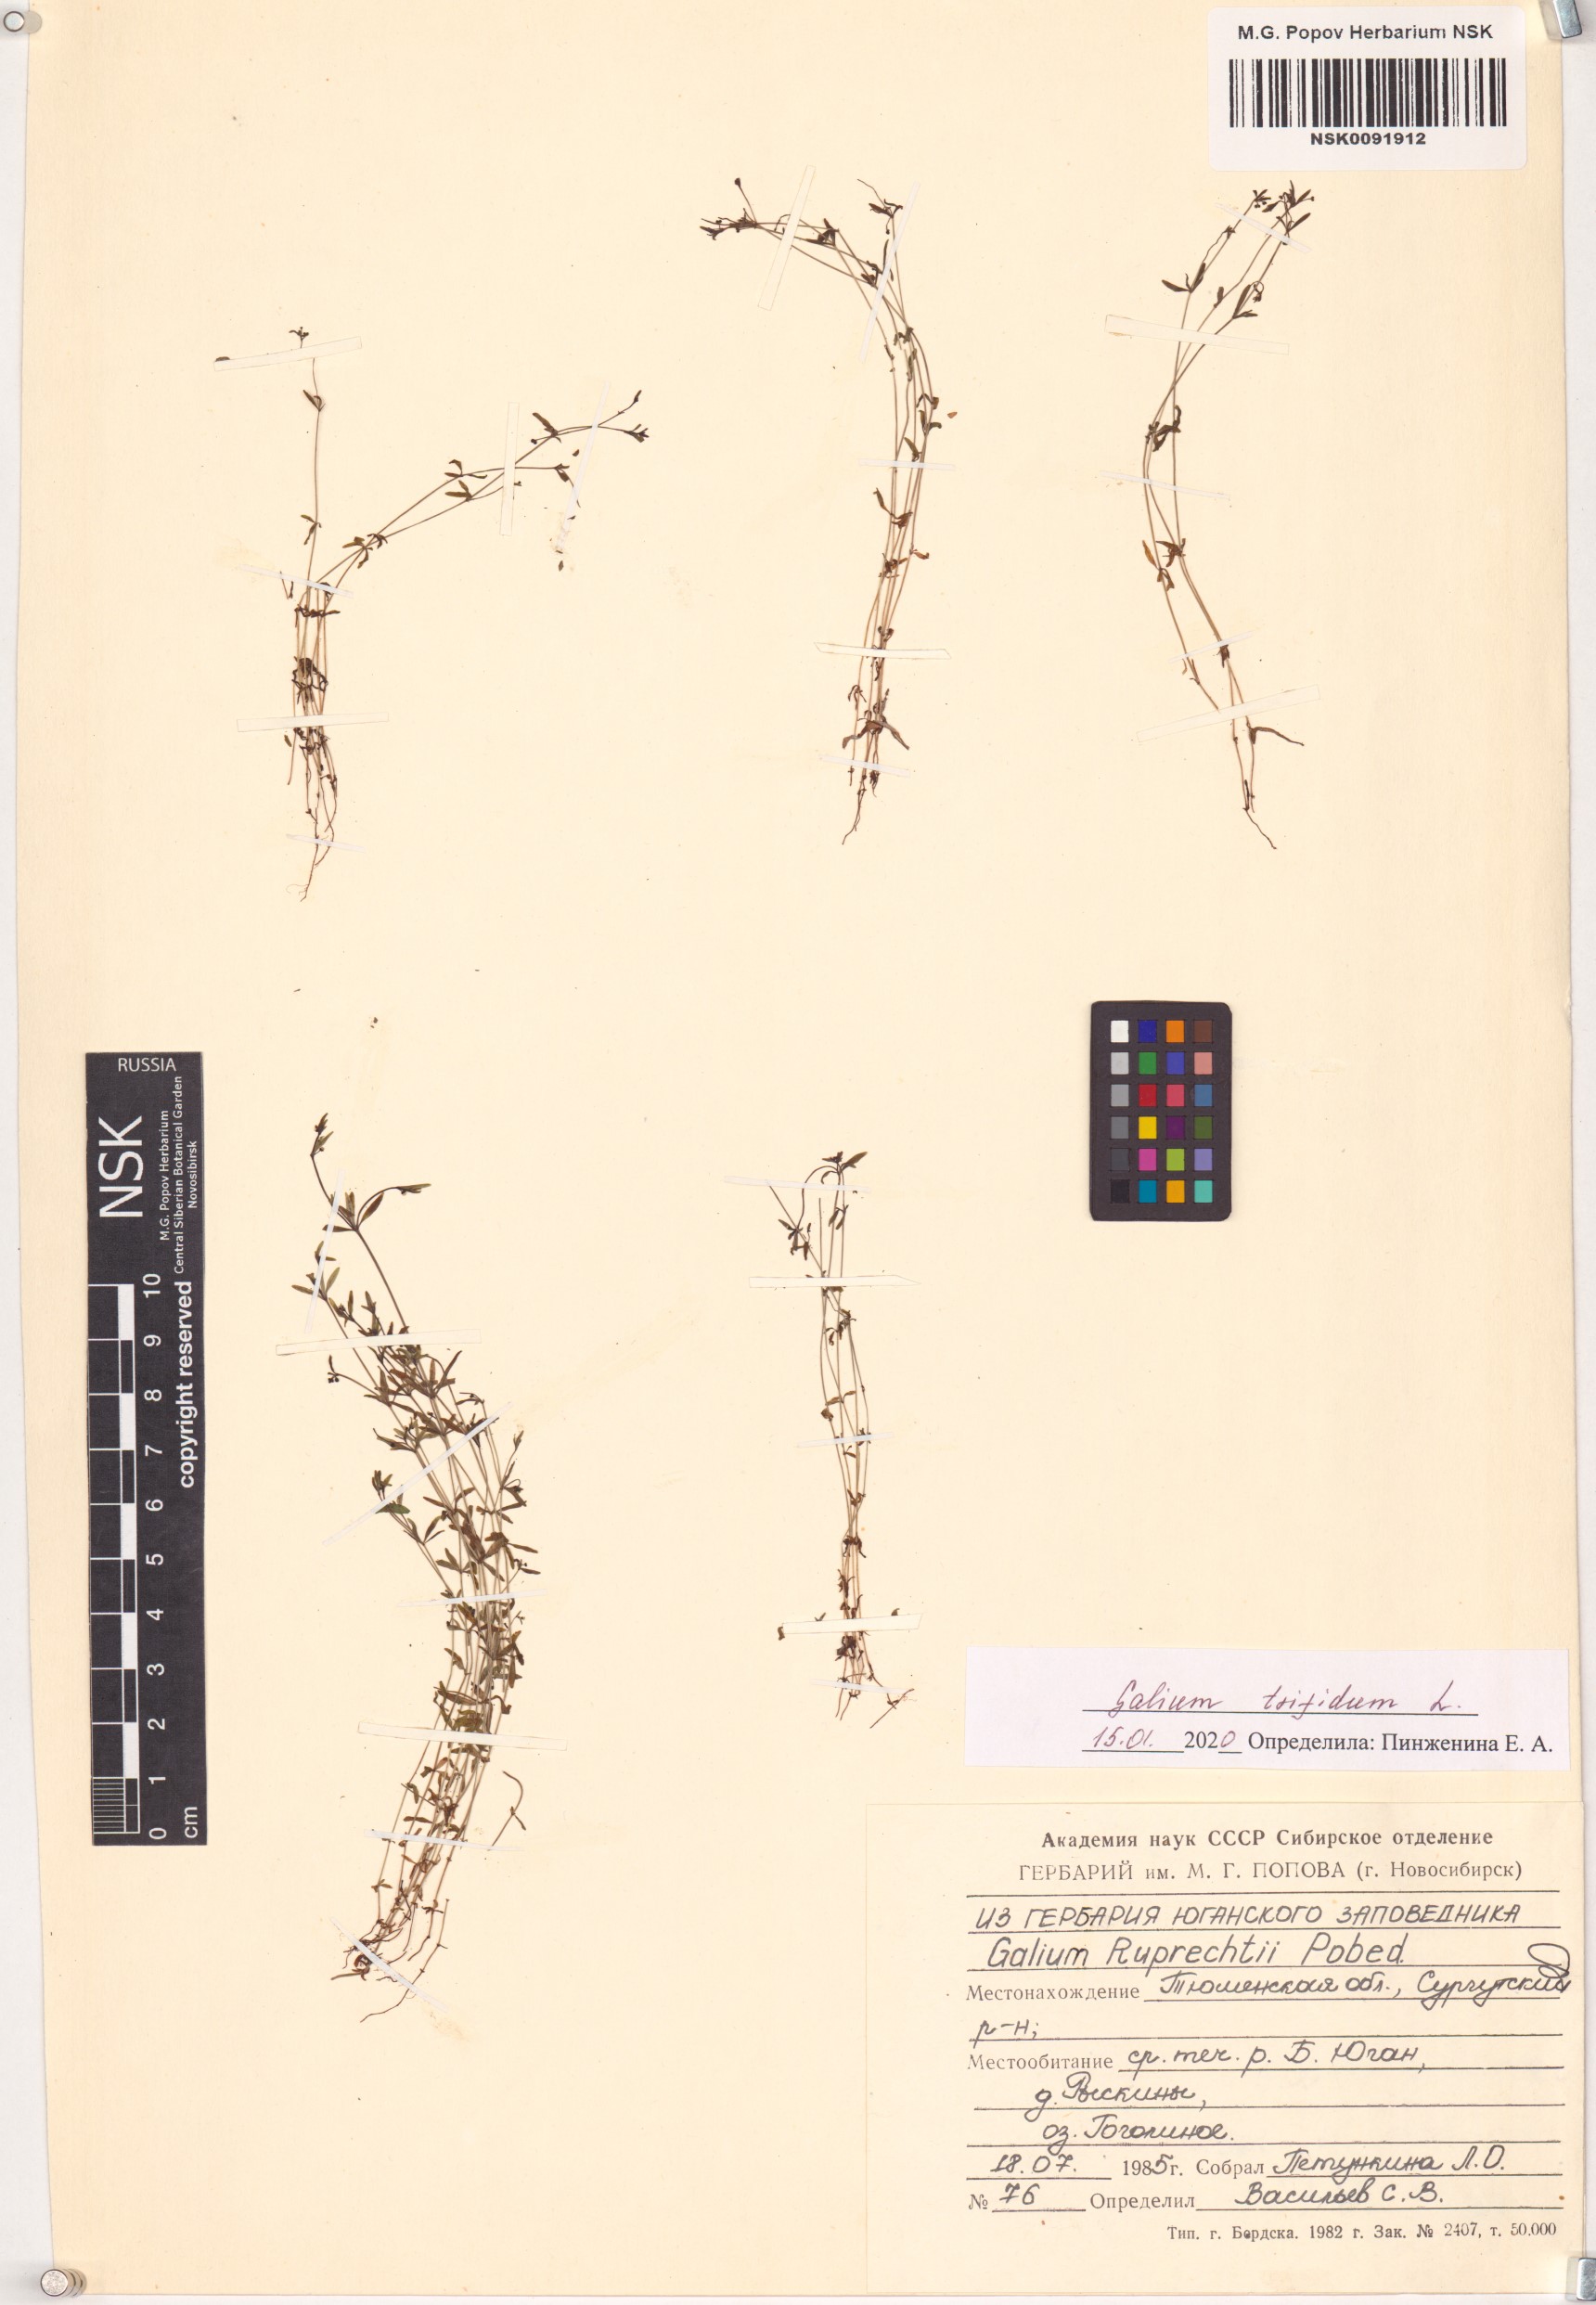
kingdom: Plantae
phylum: Tracheophyta
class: Magnoliopsida
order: Gentianales
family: Rubiaceae
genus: Galium
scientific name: Galium trifidum
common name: Small bedstraw
